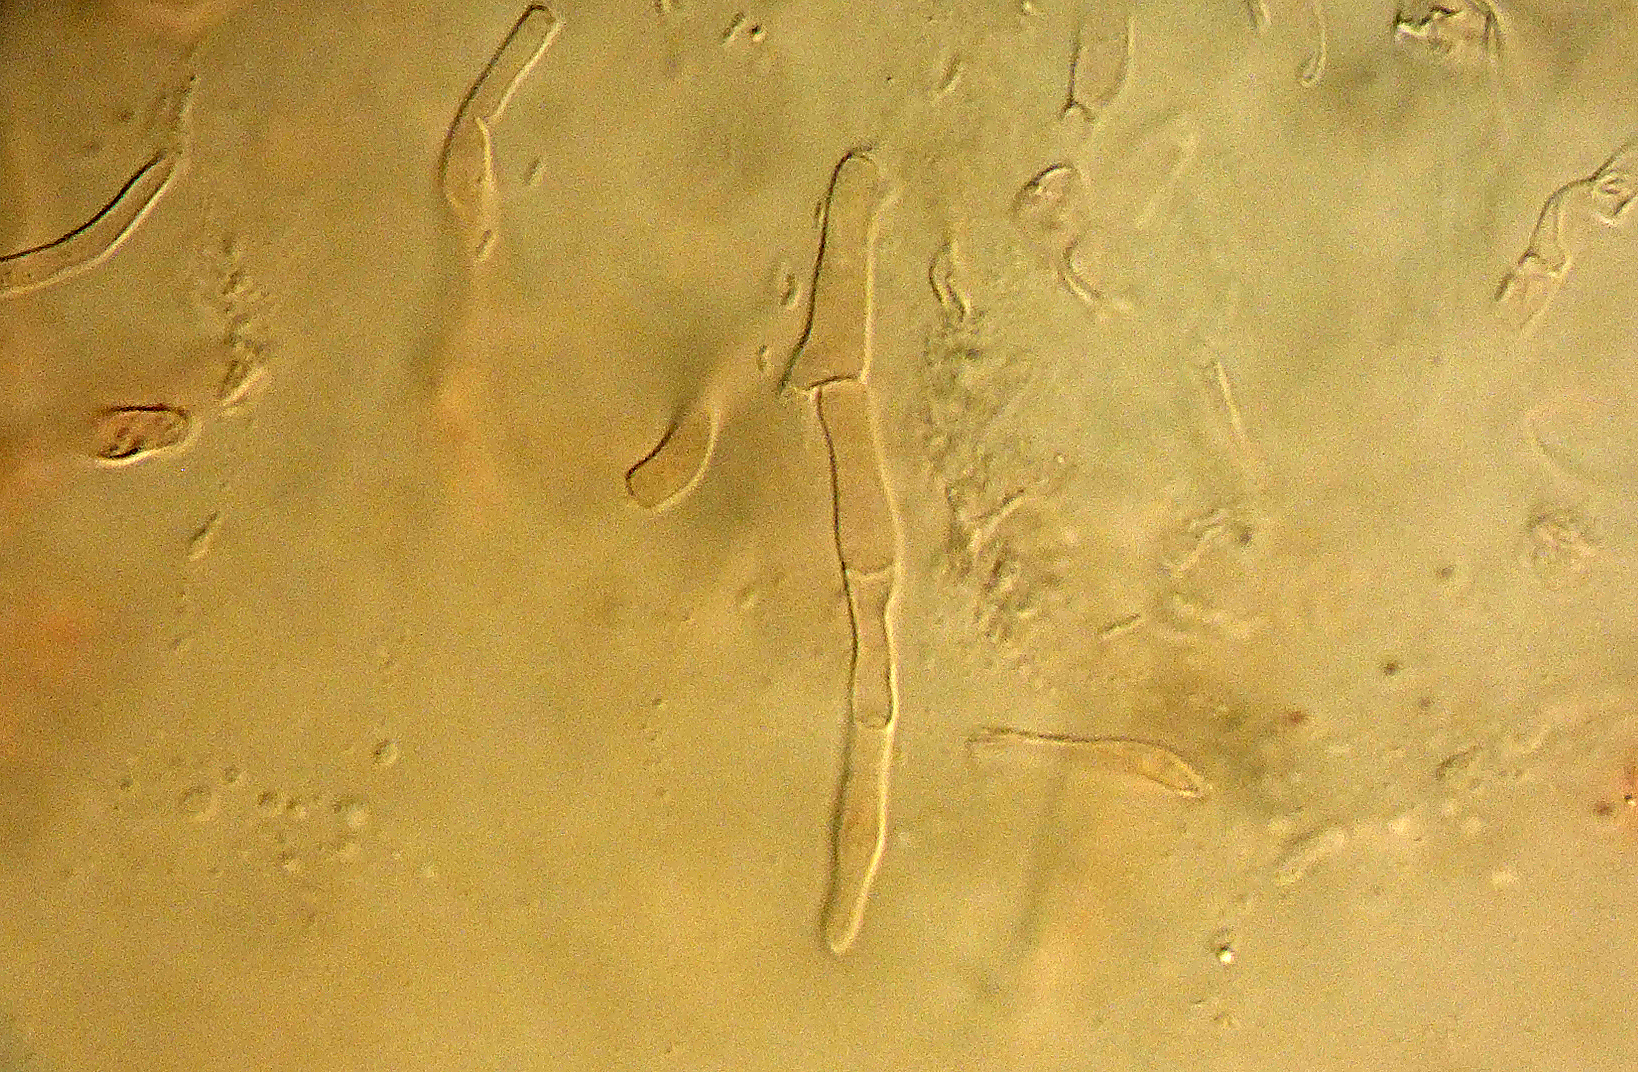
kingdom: Fungi
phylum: Basidiomycota
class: Agaricomycetes
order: Russulales
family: Russulaceae
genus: Russula
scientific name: Russula
